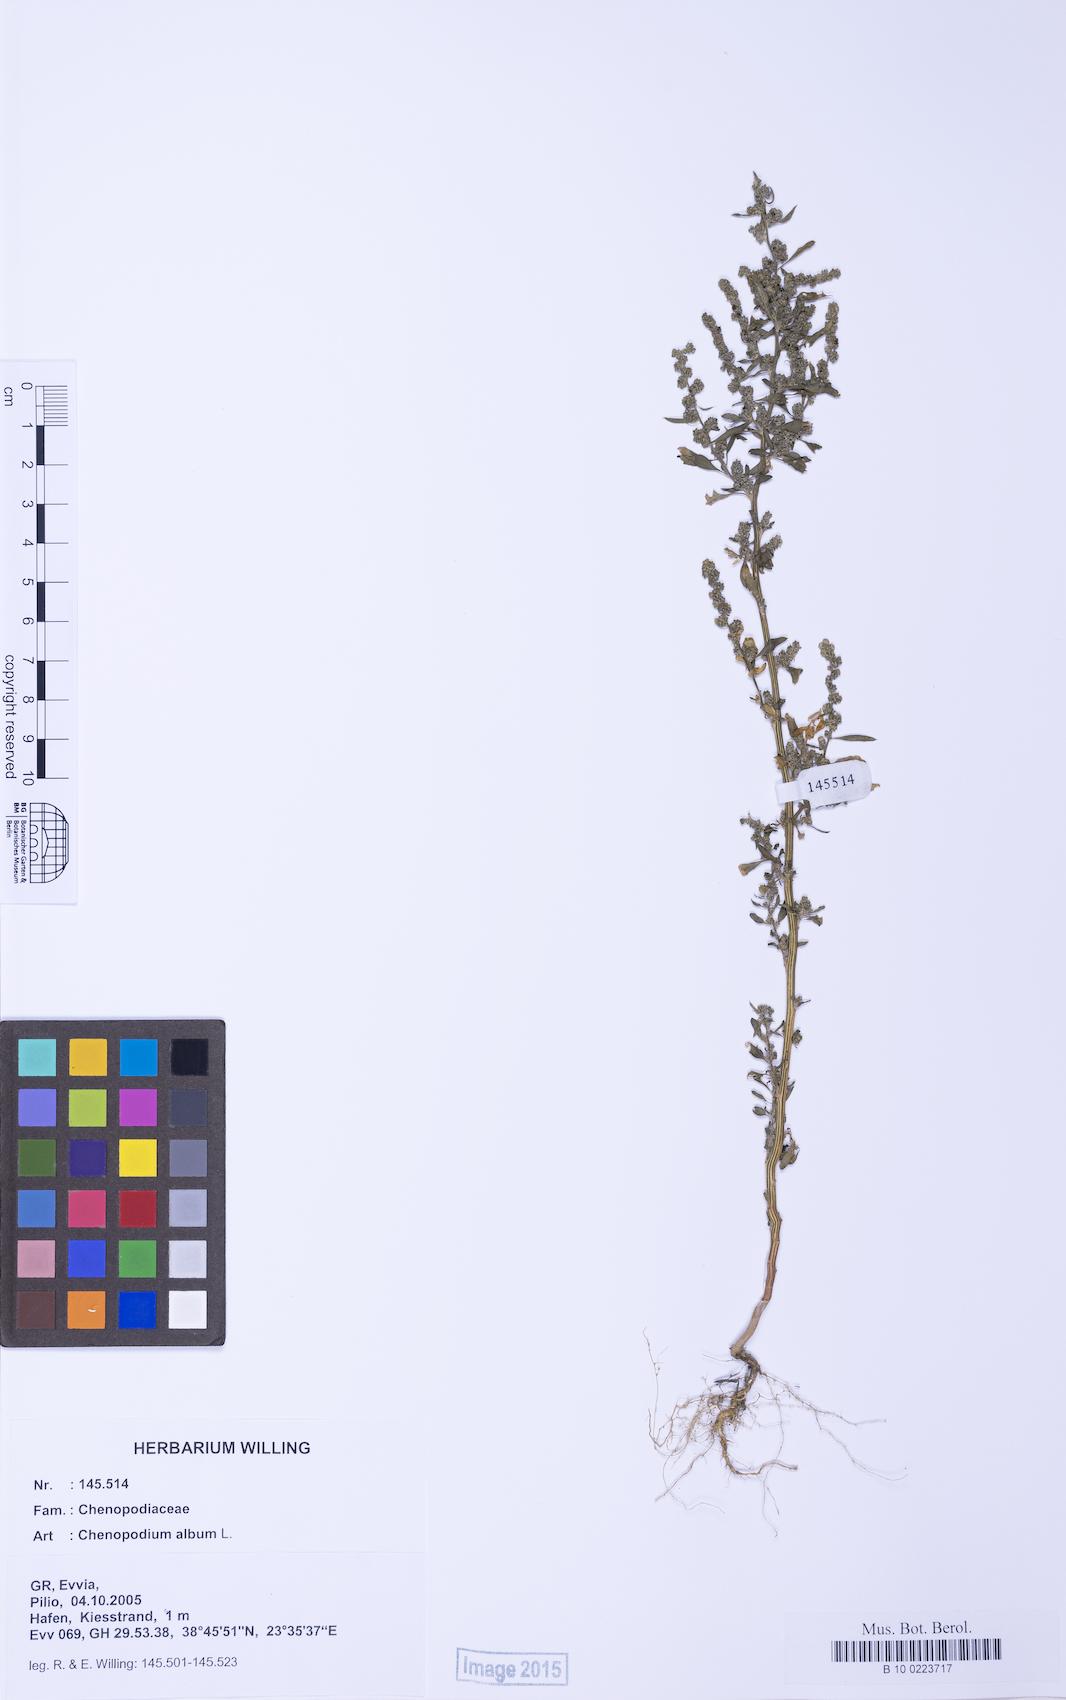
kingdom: Plantae
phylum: Tracheophyta
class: Magnoliopsida
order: Caryophyllales
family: Amaranthaceae
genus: Chenopodium
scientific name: Chenopodium album
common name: Fat-hen
